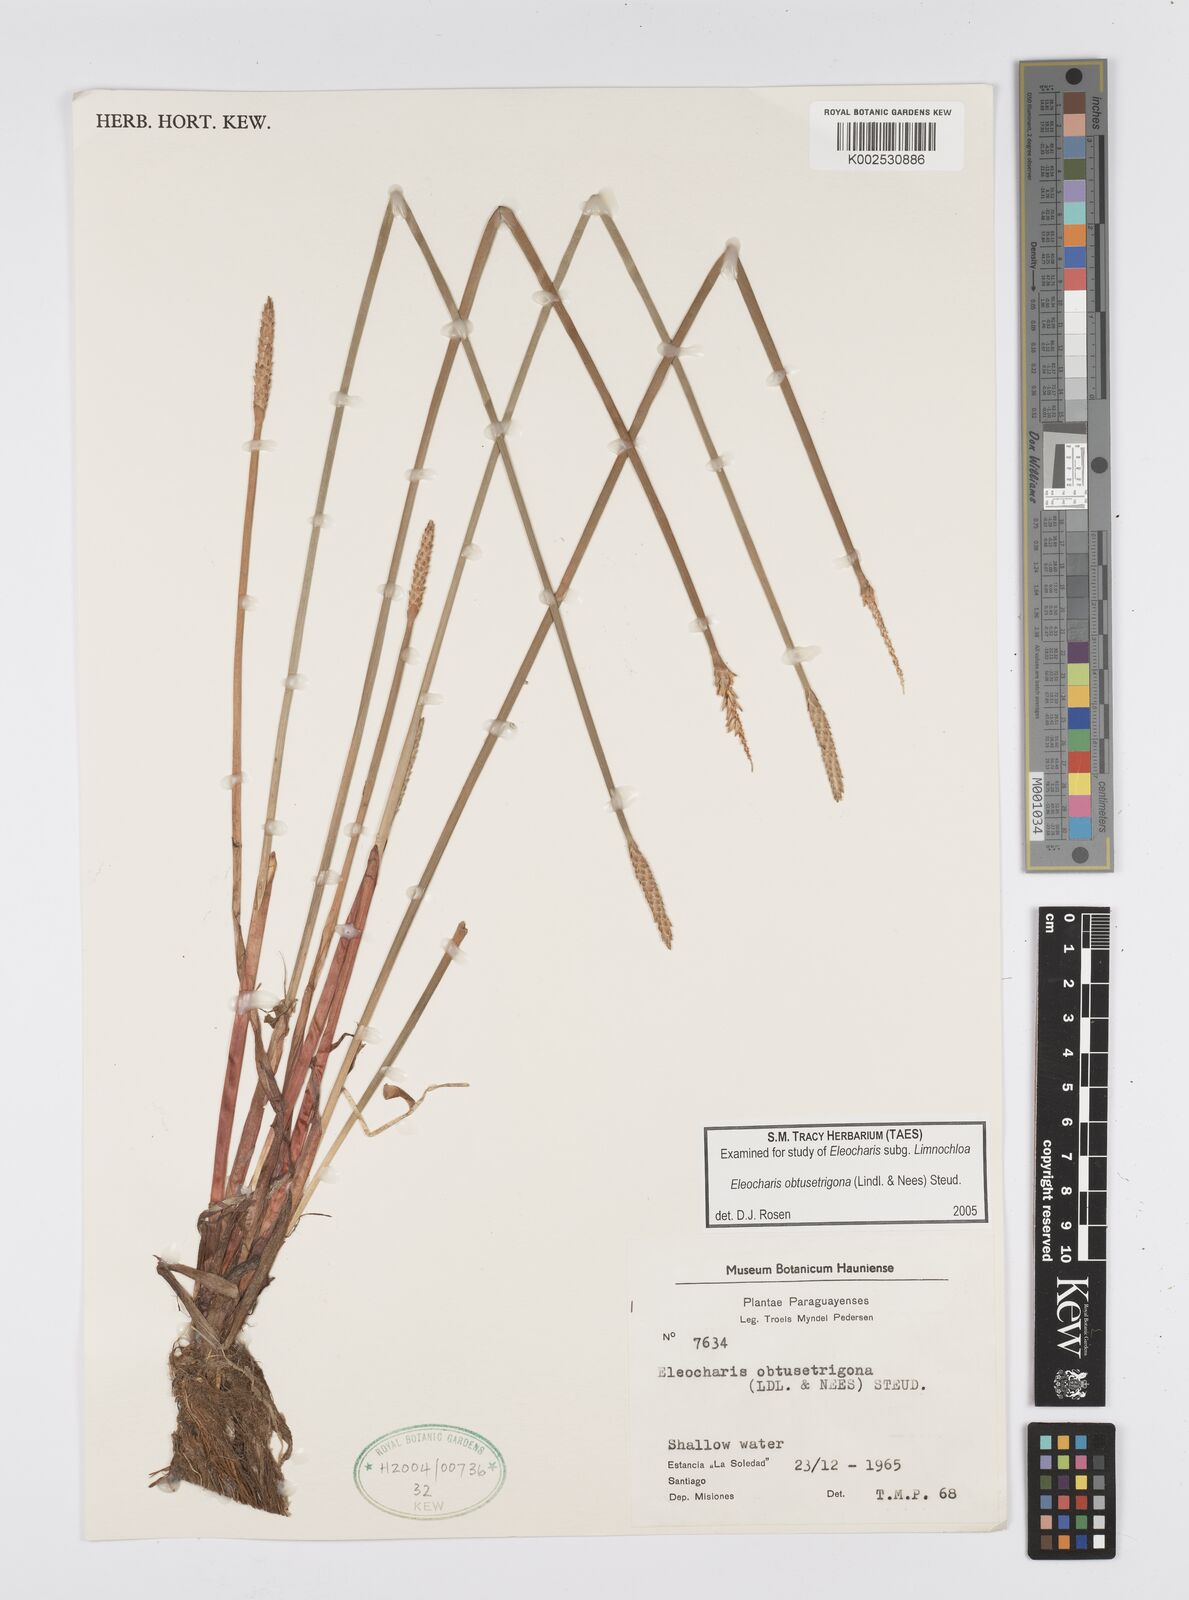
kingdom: Plantae
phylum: Tracheophyta
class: Liliopsida
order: Poales
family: Cyperaceae
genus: Eleocharis
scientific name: Eleocharis acutangula
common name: Acute spikerush
